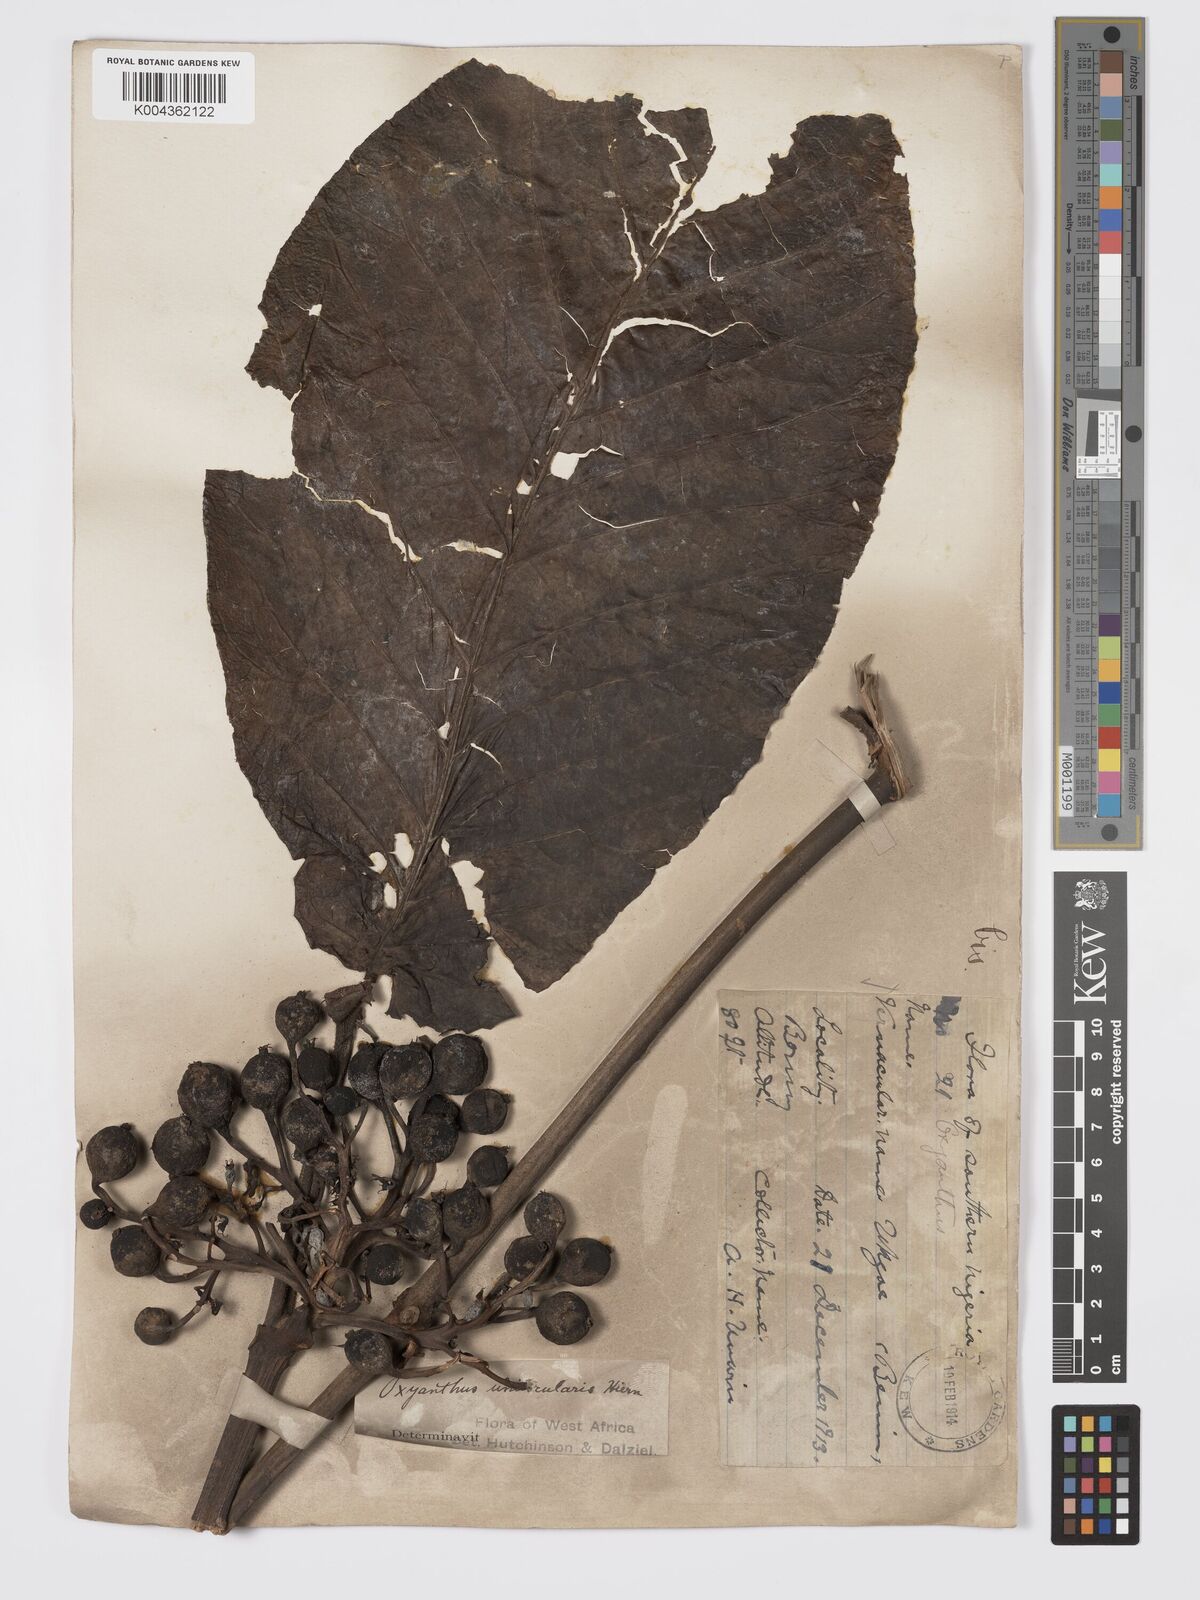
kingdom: Plantae
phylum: Tracheophyta
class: Magnoliopsida
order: Gentianales
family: Rubiaceae
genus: Oxyanthus
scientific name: Oxyanthus unilocularis
